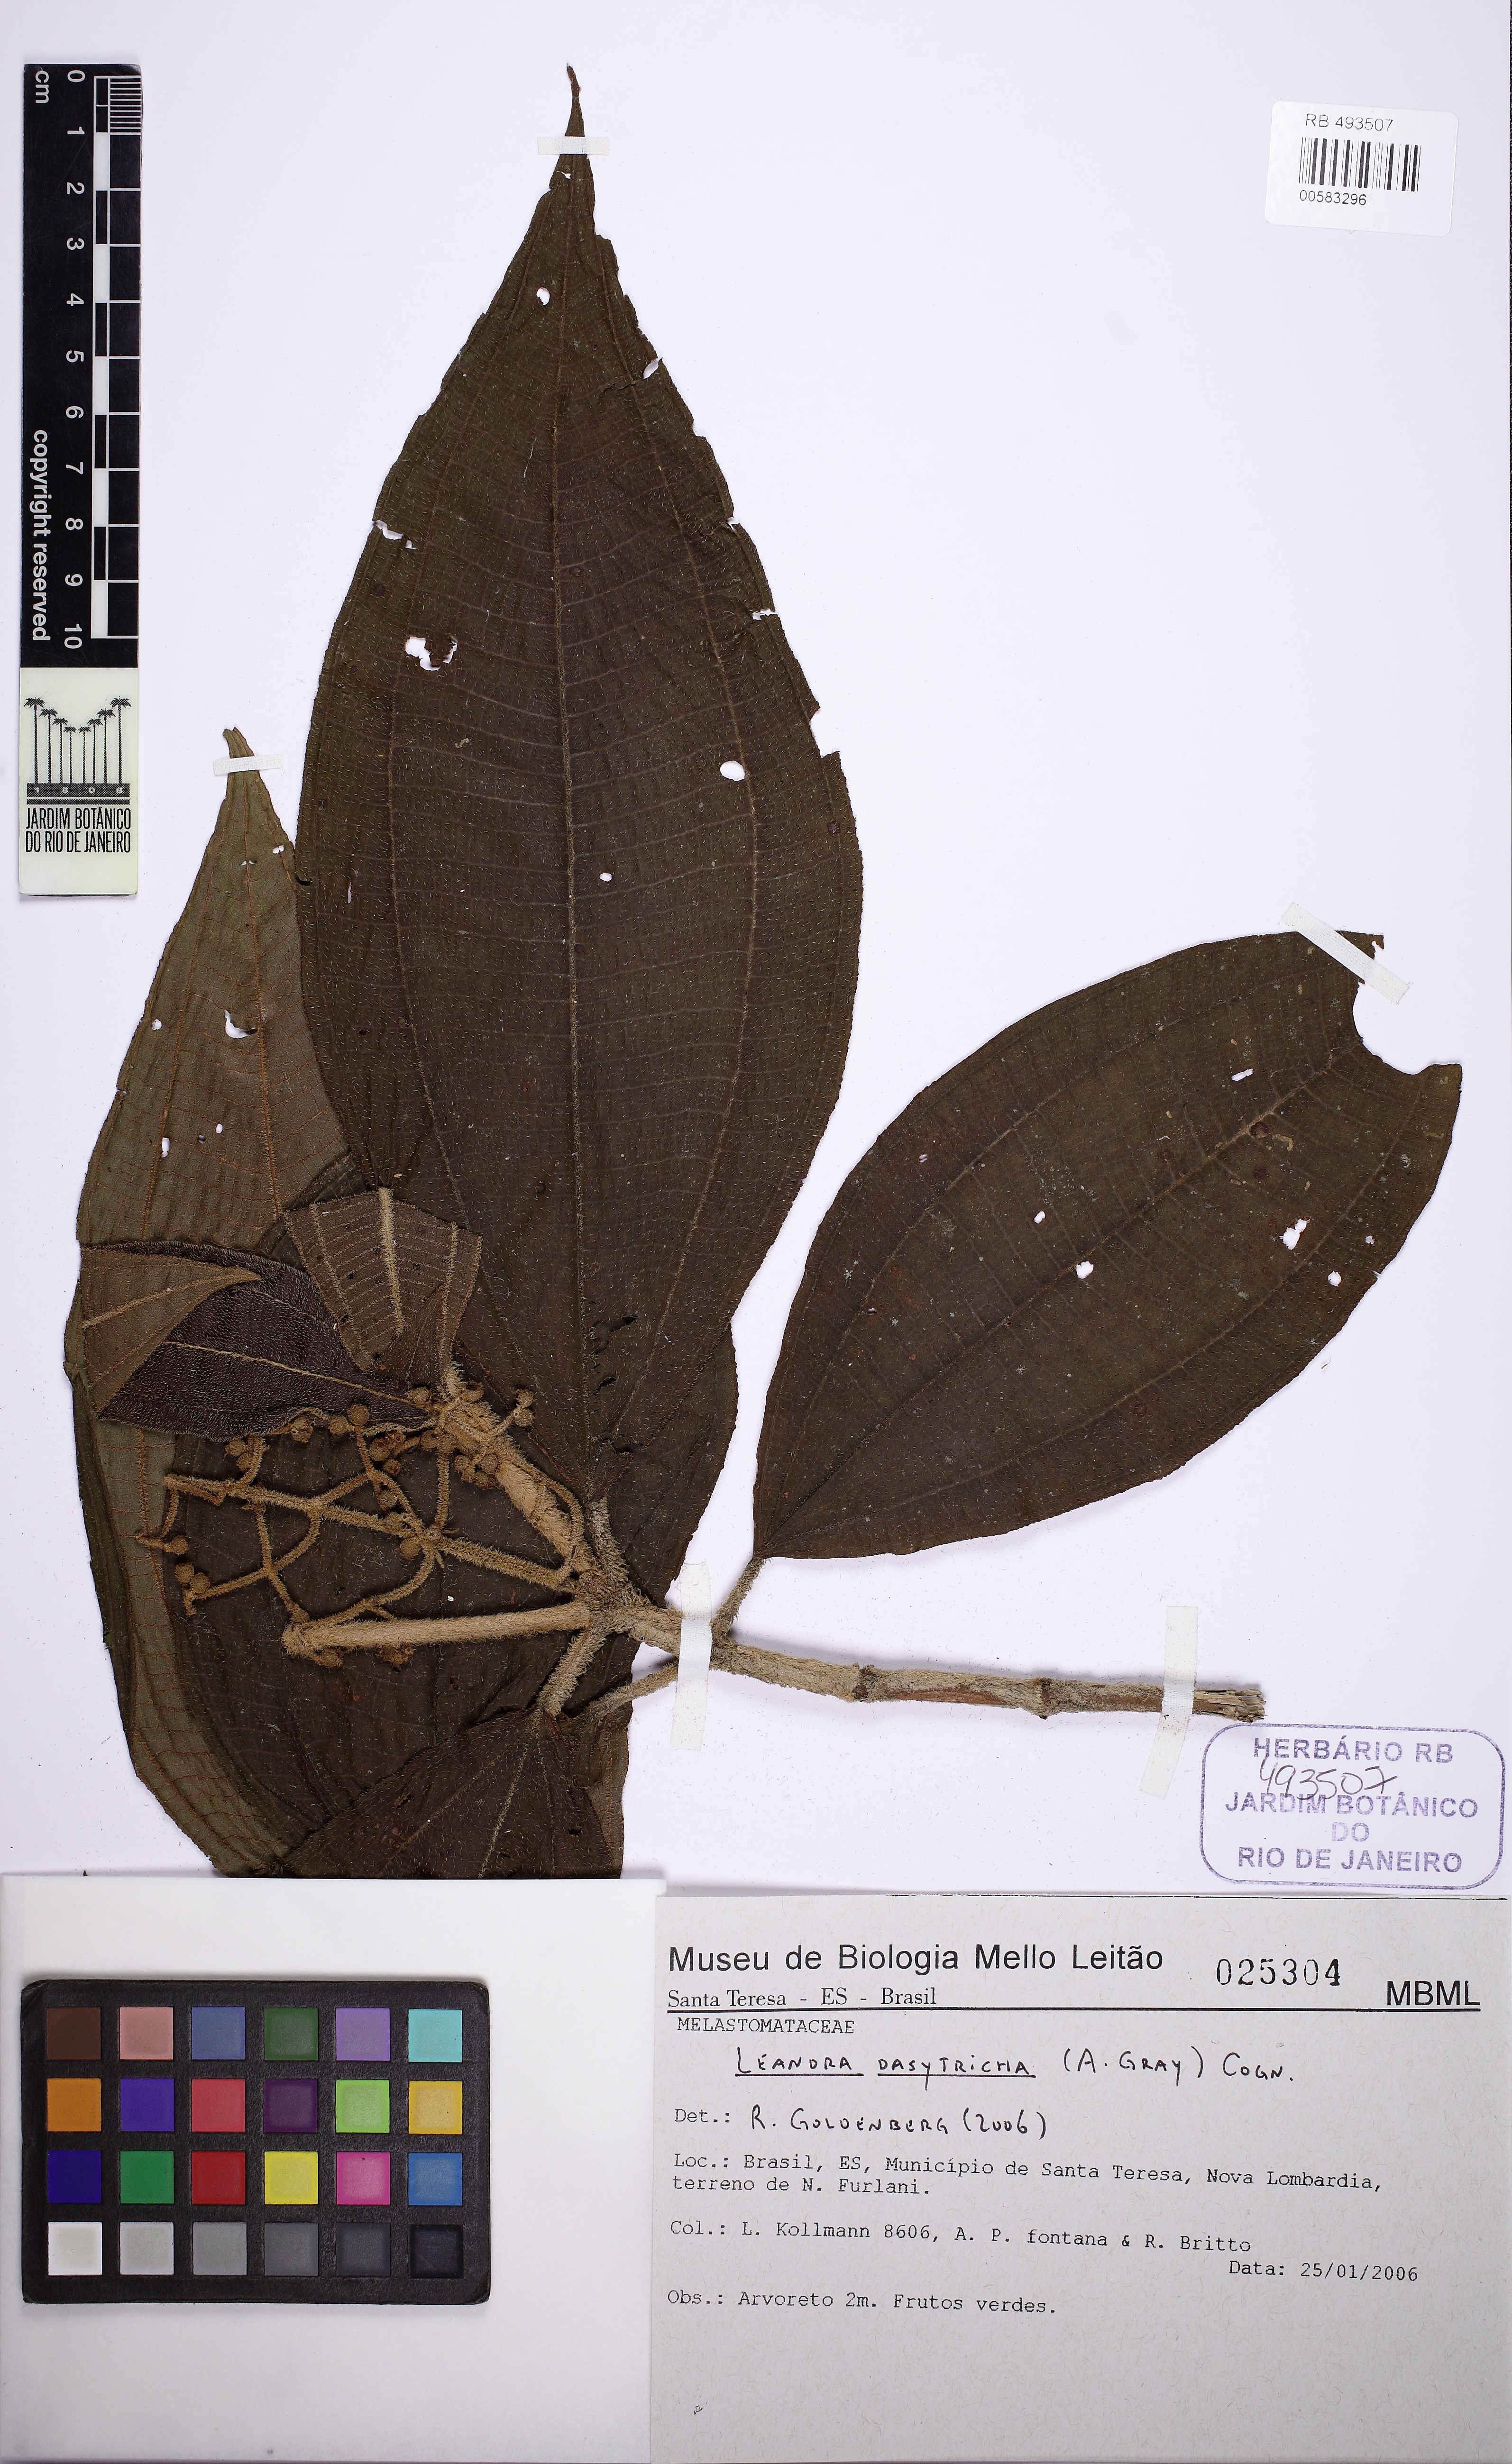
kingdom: Plantae
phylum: Tracheophyta
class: Magnoliopsida
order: Myrtales
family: Melastomataceae
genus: Miconia
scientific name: Miconia dasytricha
